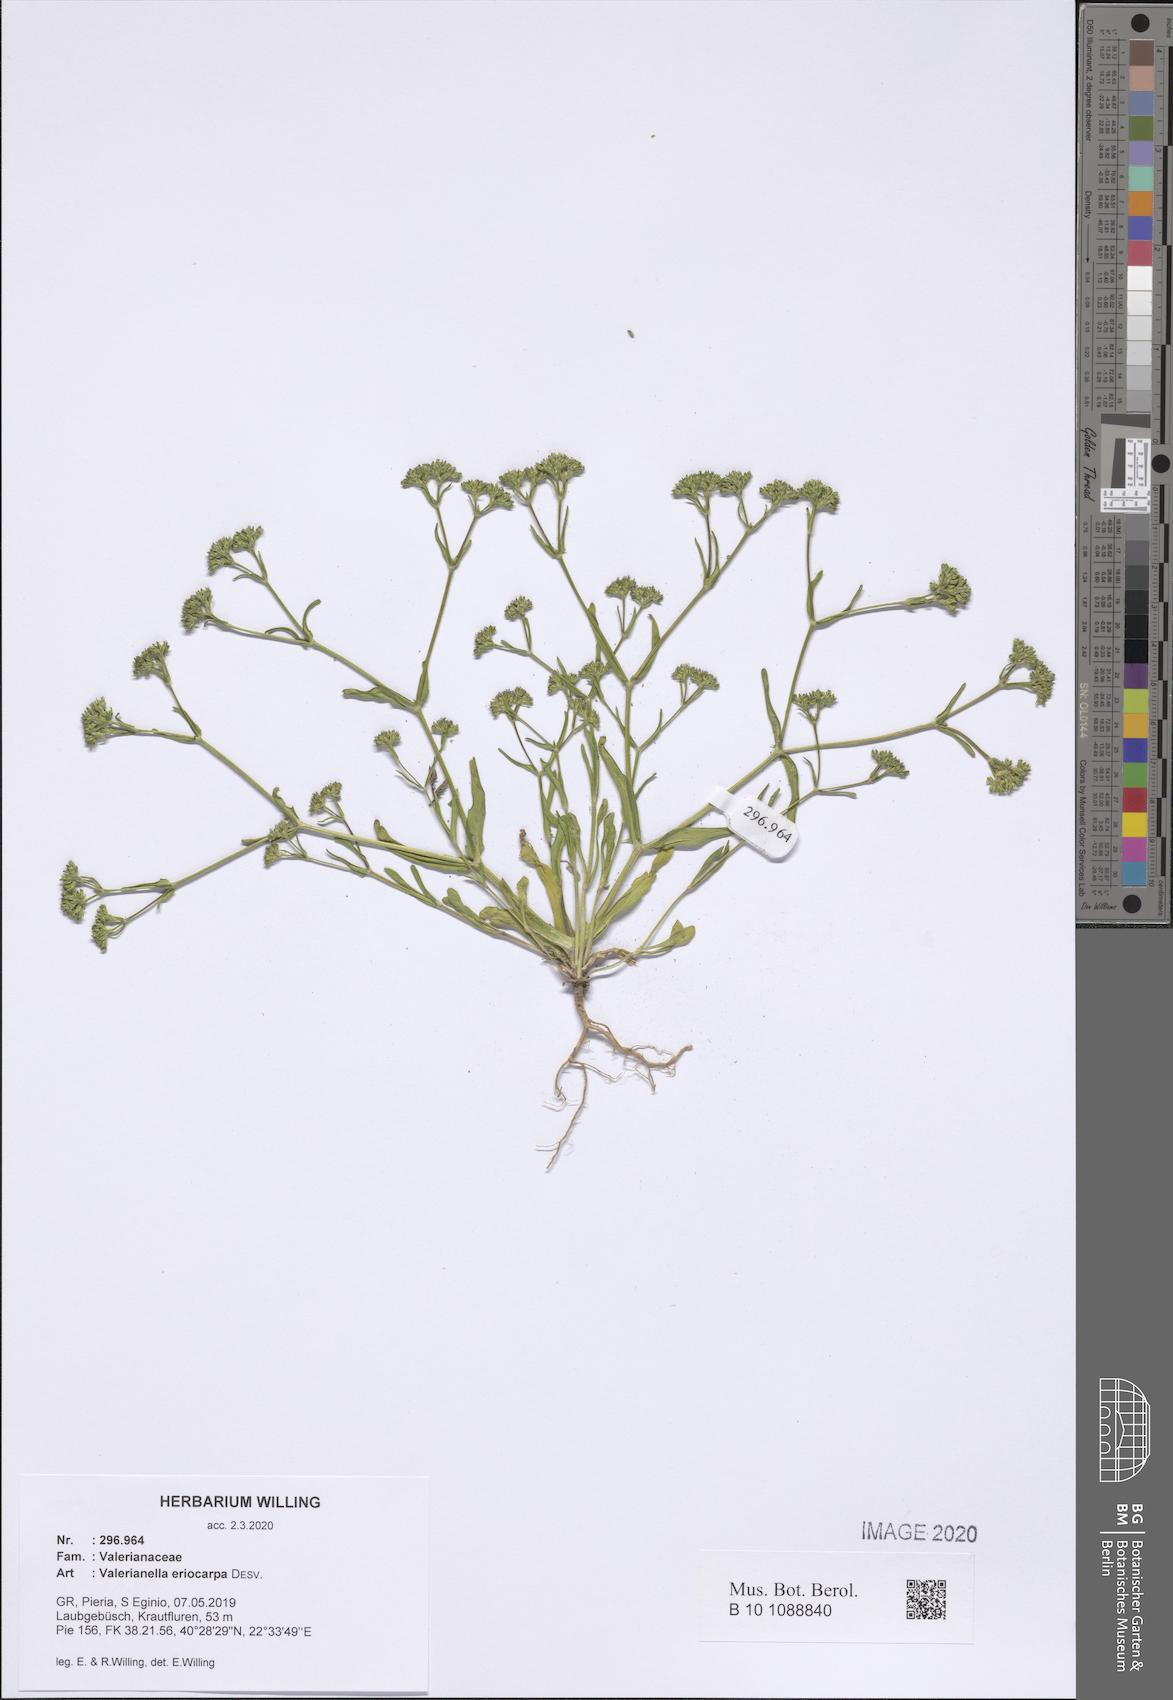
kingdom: Plantae
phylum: Tracheophyta
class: Magnoliopsida
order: Dipsacales
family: Caprifoliaceae
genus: Valerianella
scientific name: Valerianella eriocarpa
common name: Hairy-fruited cornsalad
